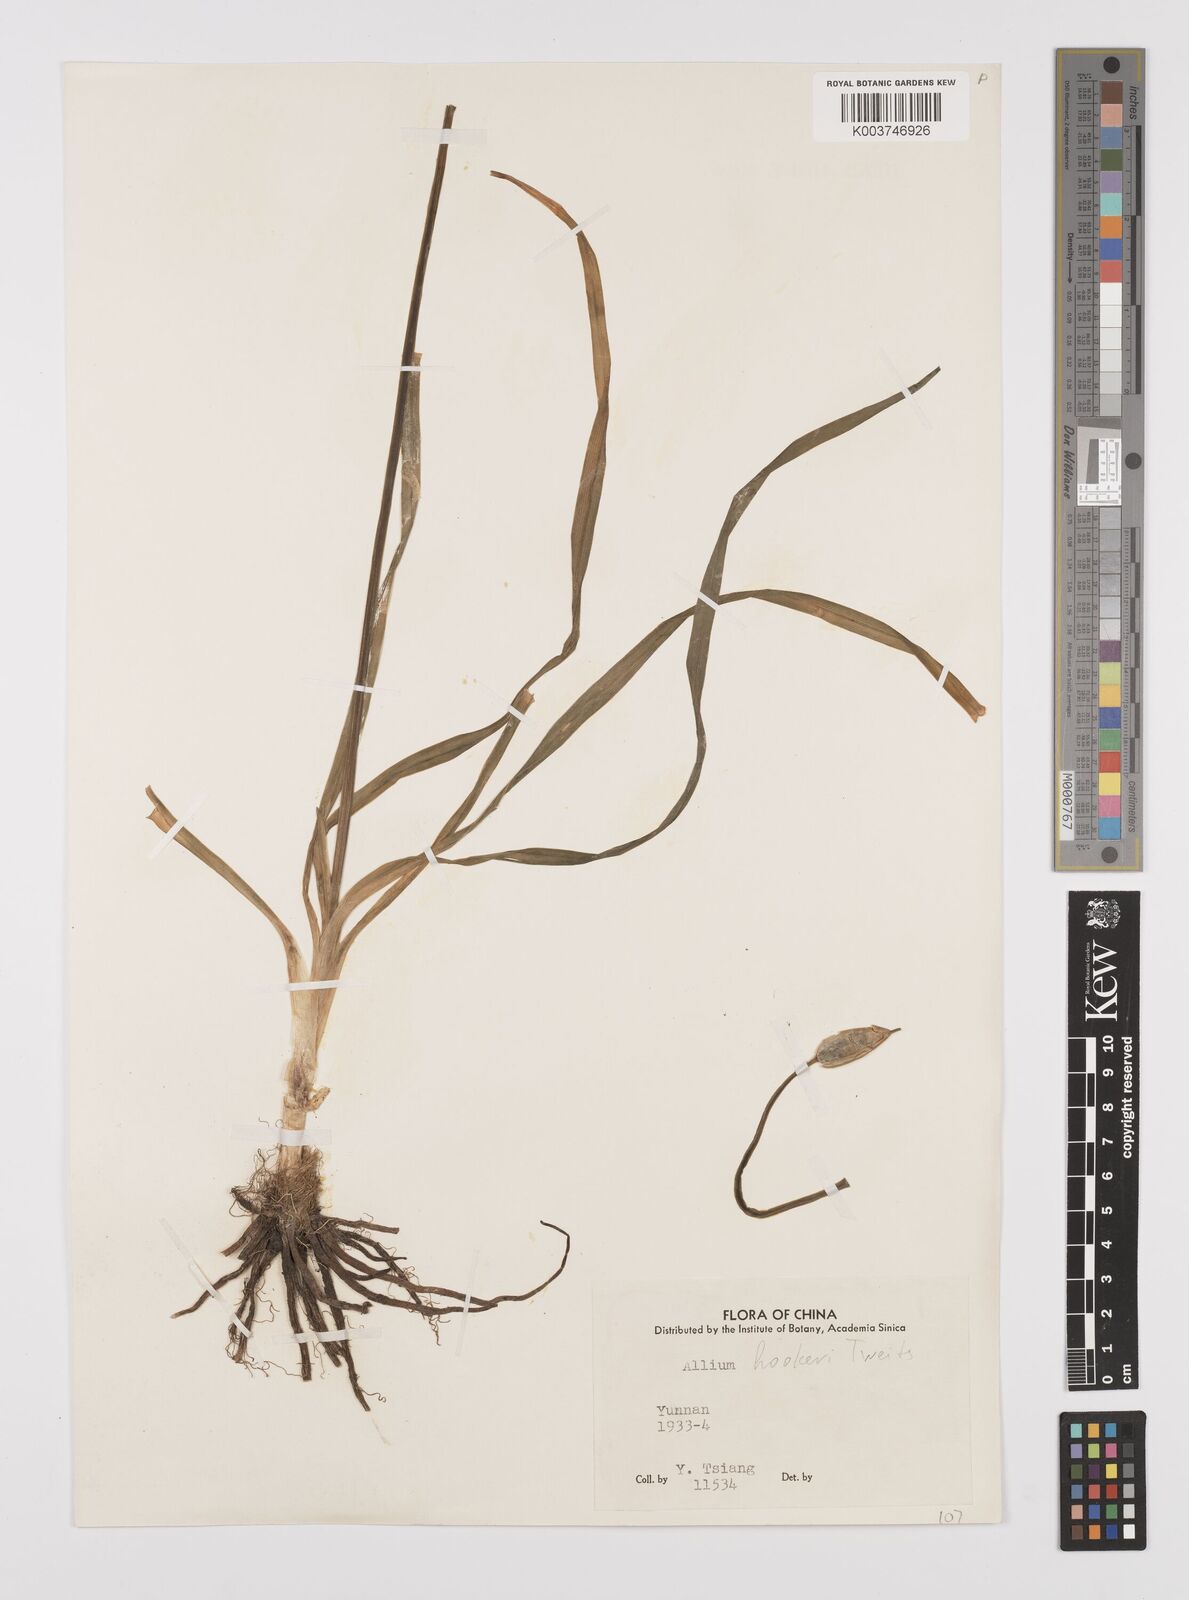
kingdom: Plantae
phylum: Tracheophyta
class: Liliopsida
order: Asparagales
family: Amaryllidaceae
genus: Allium
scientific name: Allium
